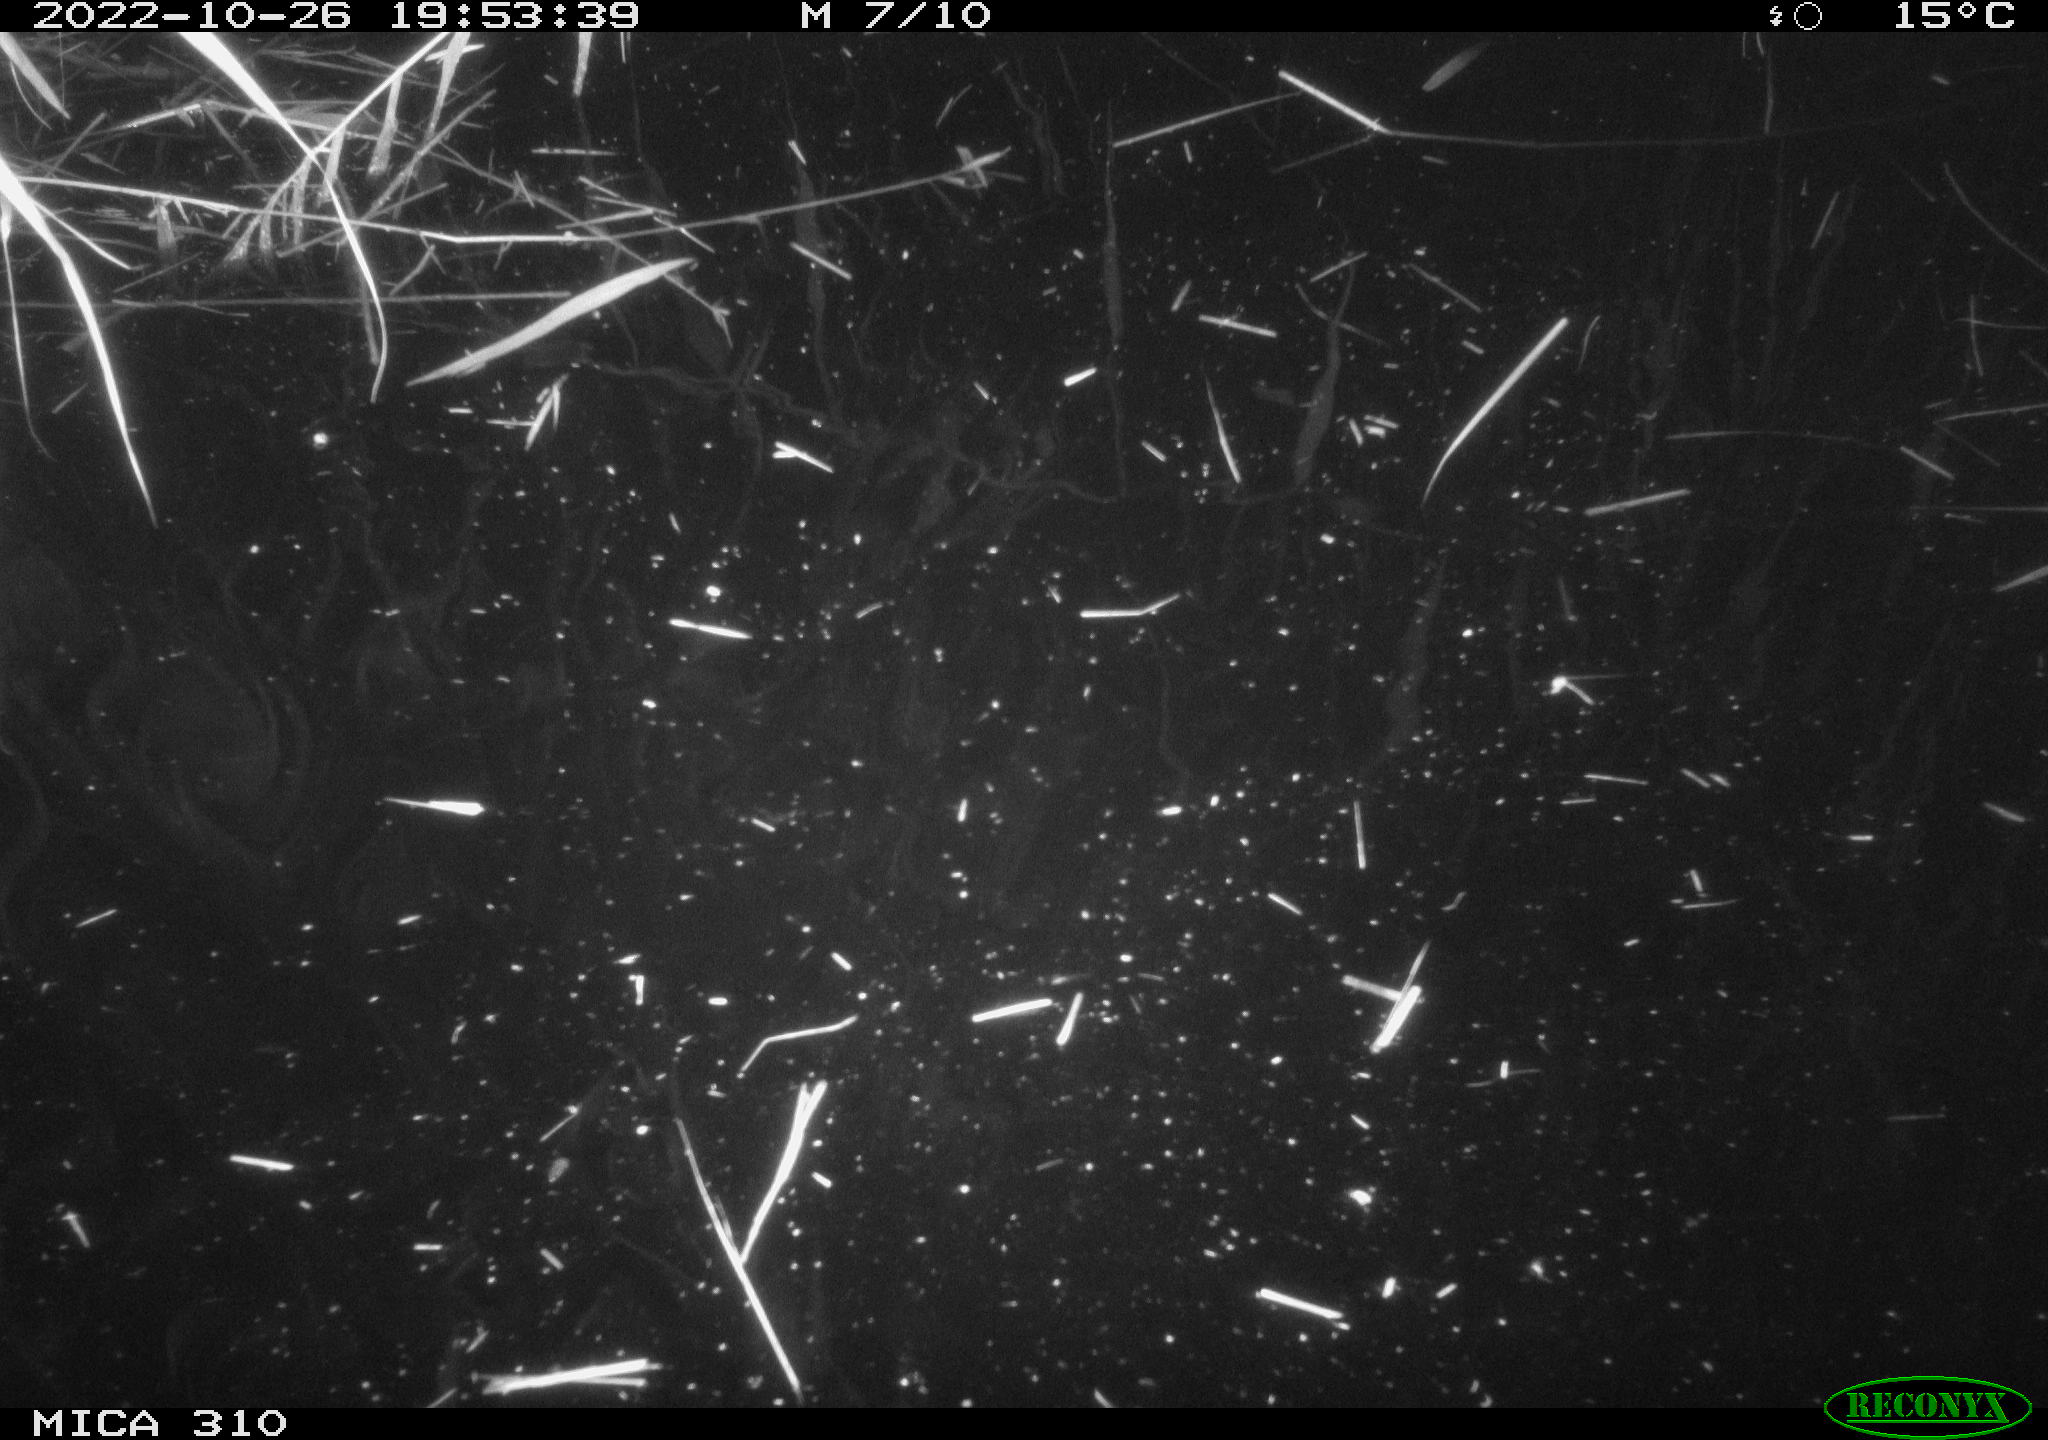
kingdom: Animalia
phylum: Chordata
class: Mammalia
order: Rodentia
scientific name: Rodentia
